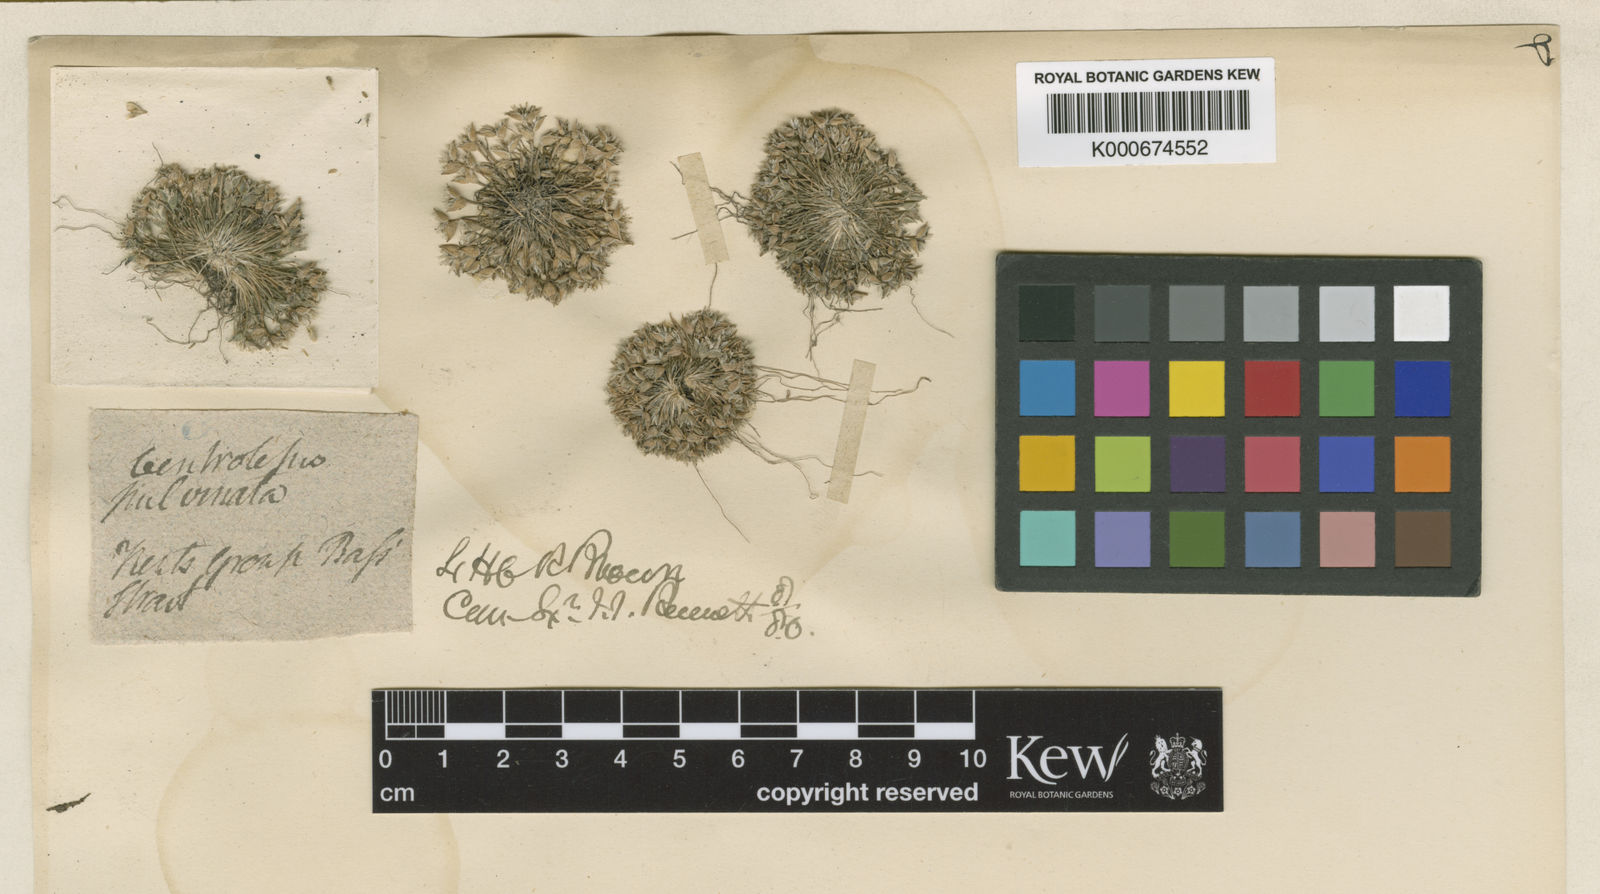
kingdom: Plantae
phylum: Tracheophyta
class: Liliopsida
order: Poales
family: Restionaceae
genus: Centrolepis
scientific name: Centrolepis strigosa
